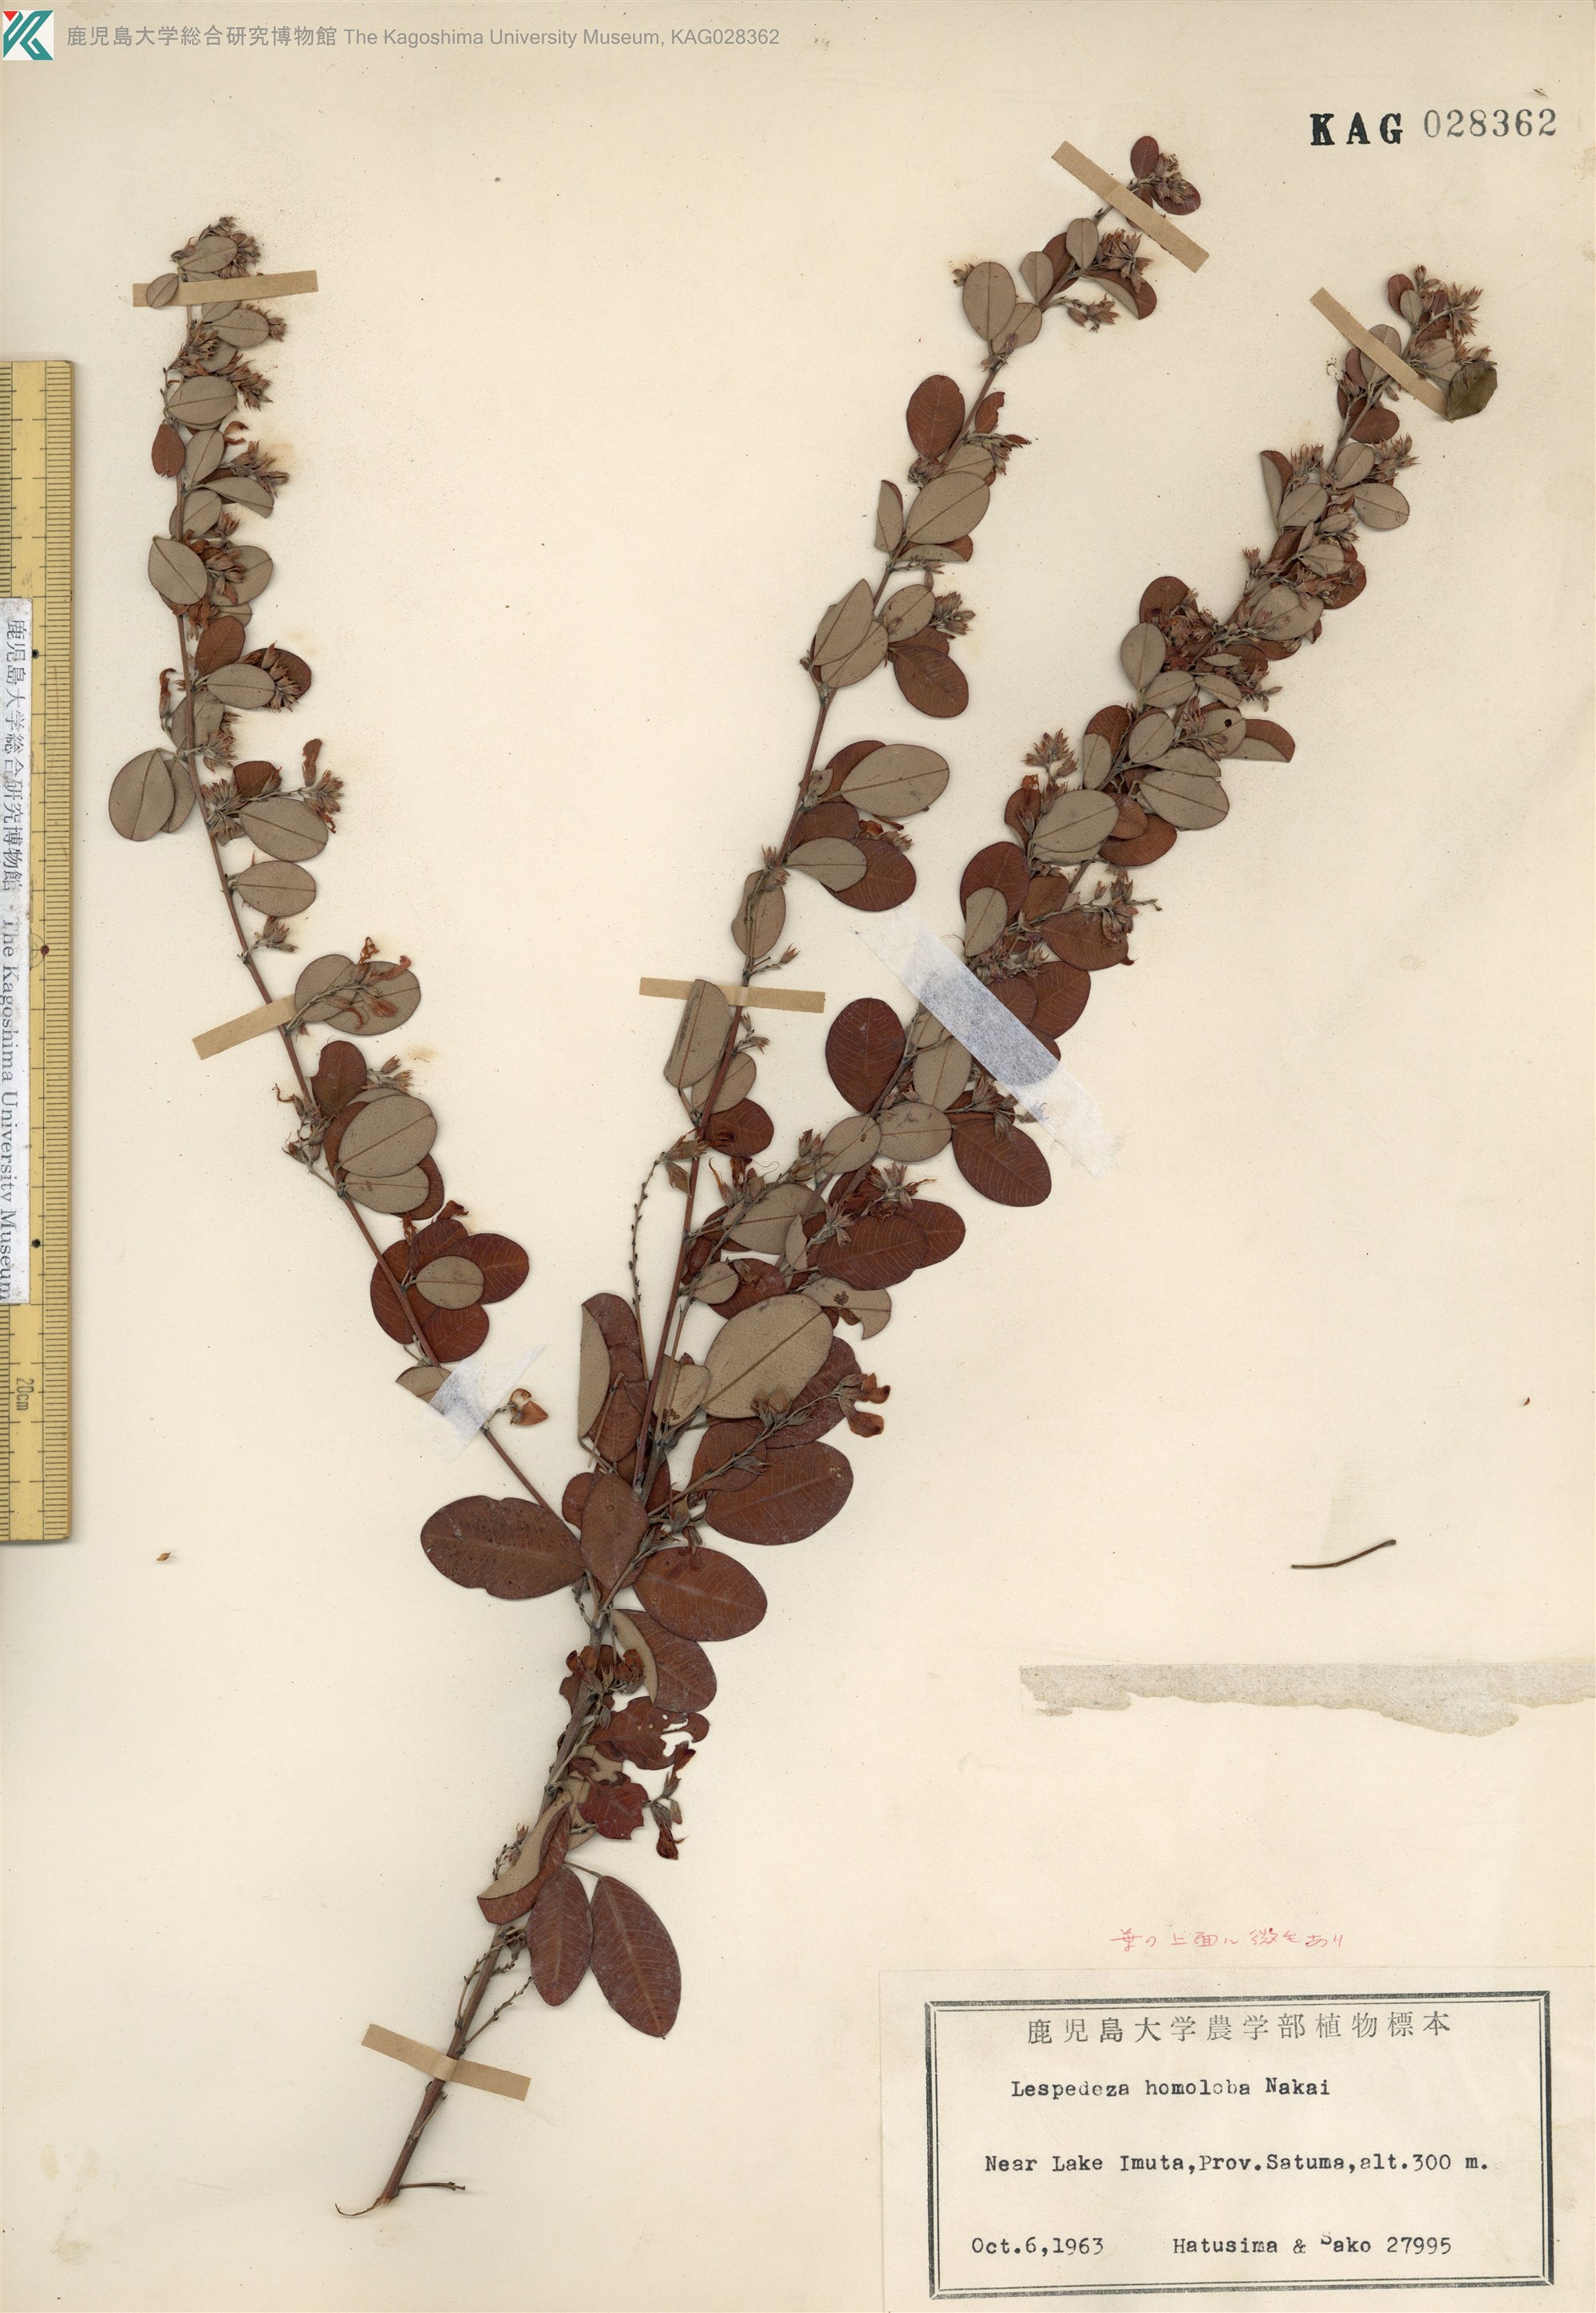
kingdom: Plantae
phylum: Tracheophyta
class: Magnoliopsida
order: Fabales
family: Fabaceae
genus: Lespedeza
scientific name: Lespedeza homoloba
